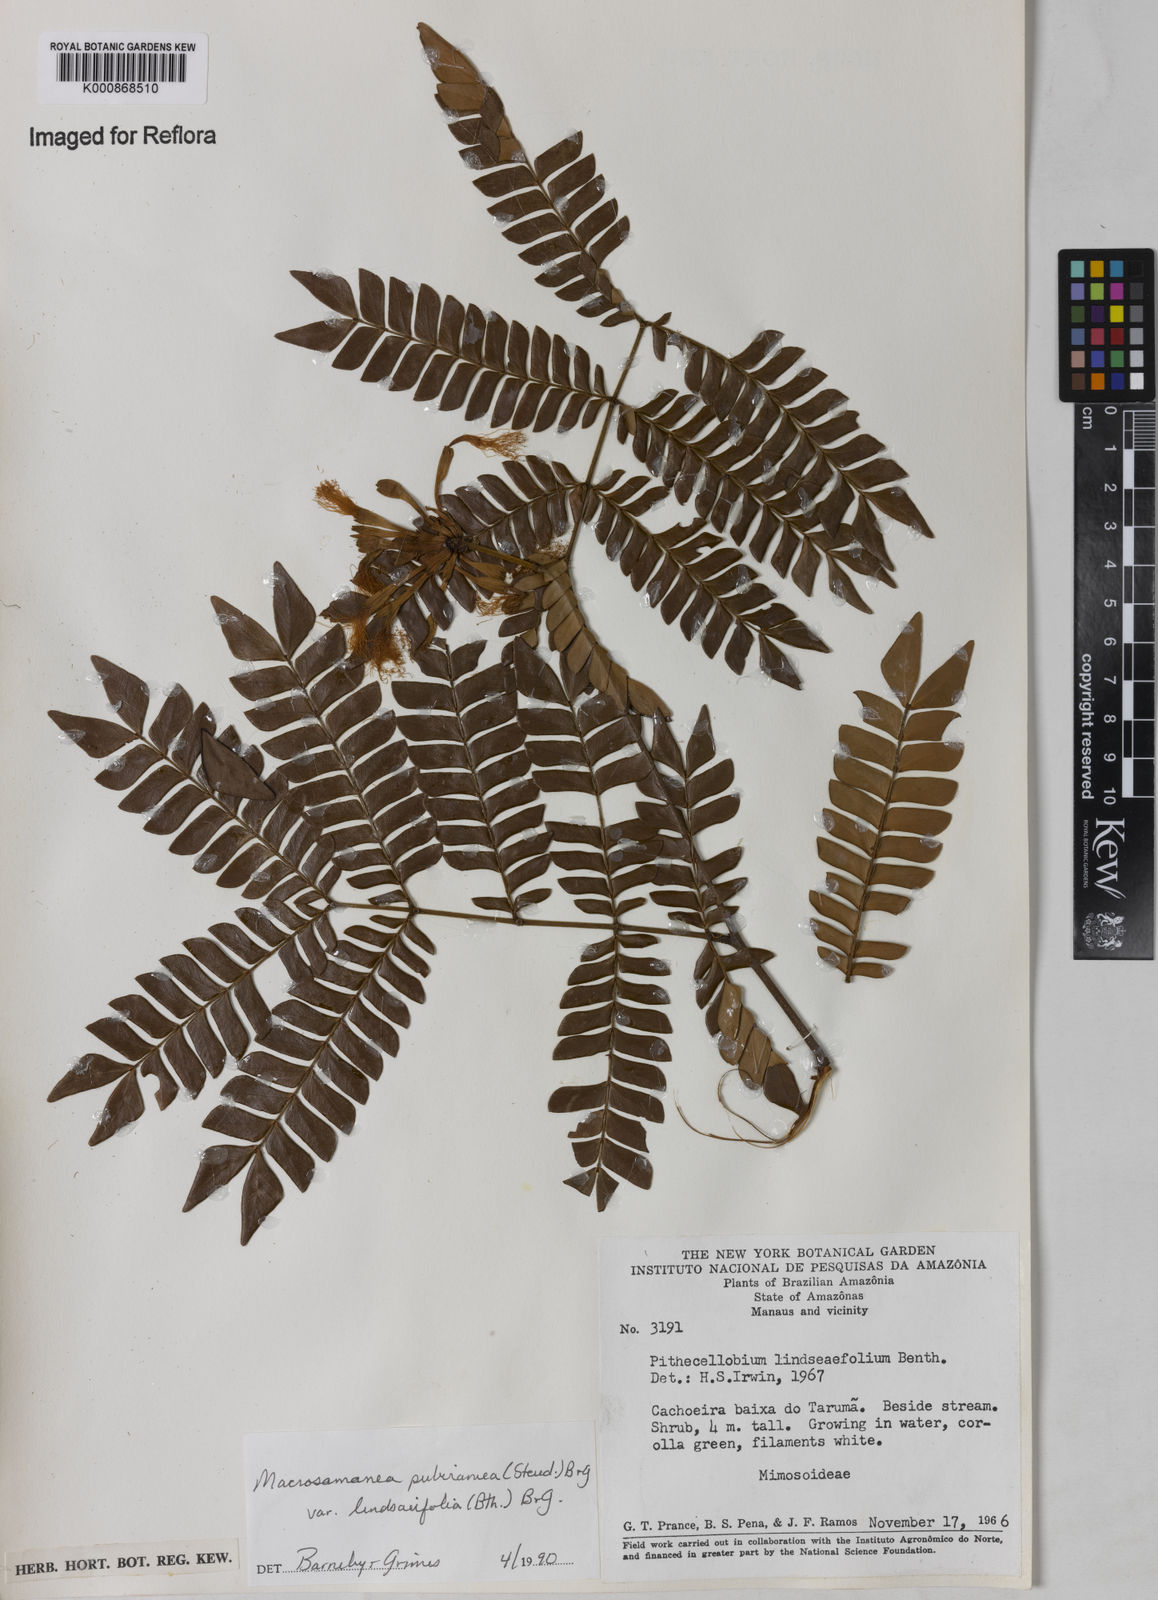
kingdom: Plantae
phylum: Tracheophyta
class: Magnoliopsida
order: Fabales
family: Fabaceae
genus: Macrosamanea
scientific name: Macrosamanea pubiramea
